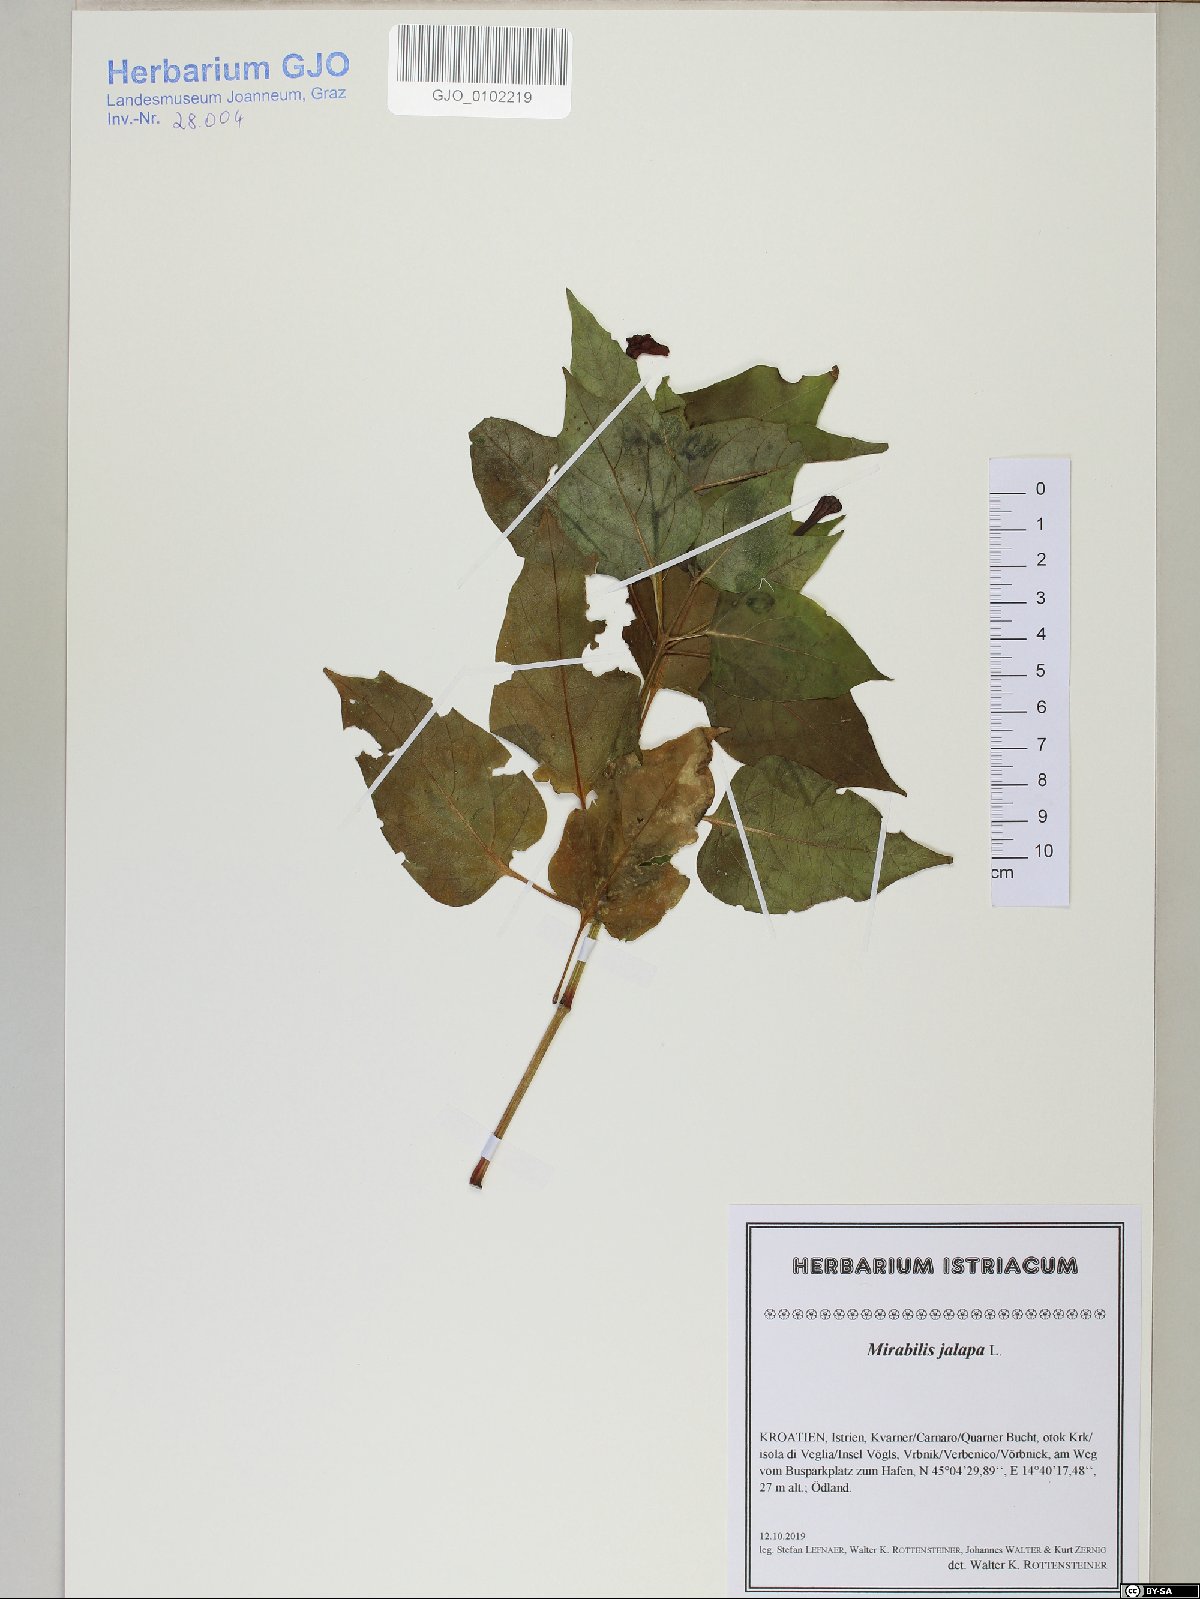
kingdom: Plantae
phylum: Tracheophyta
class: Magnoliopsida
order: Caryophyllales
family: Nyctaginaceae
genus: Mirabilis
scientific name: Mirabilis jalapa
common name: Marvel-of-peru
